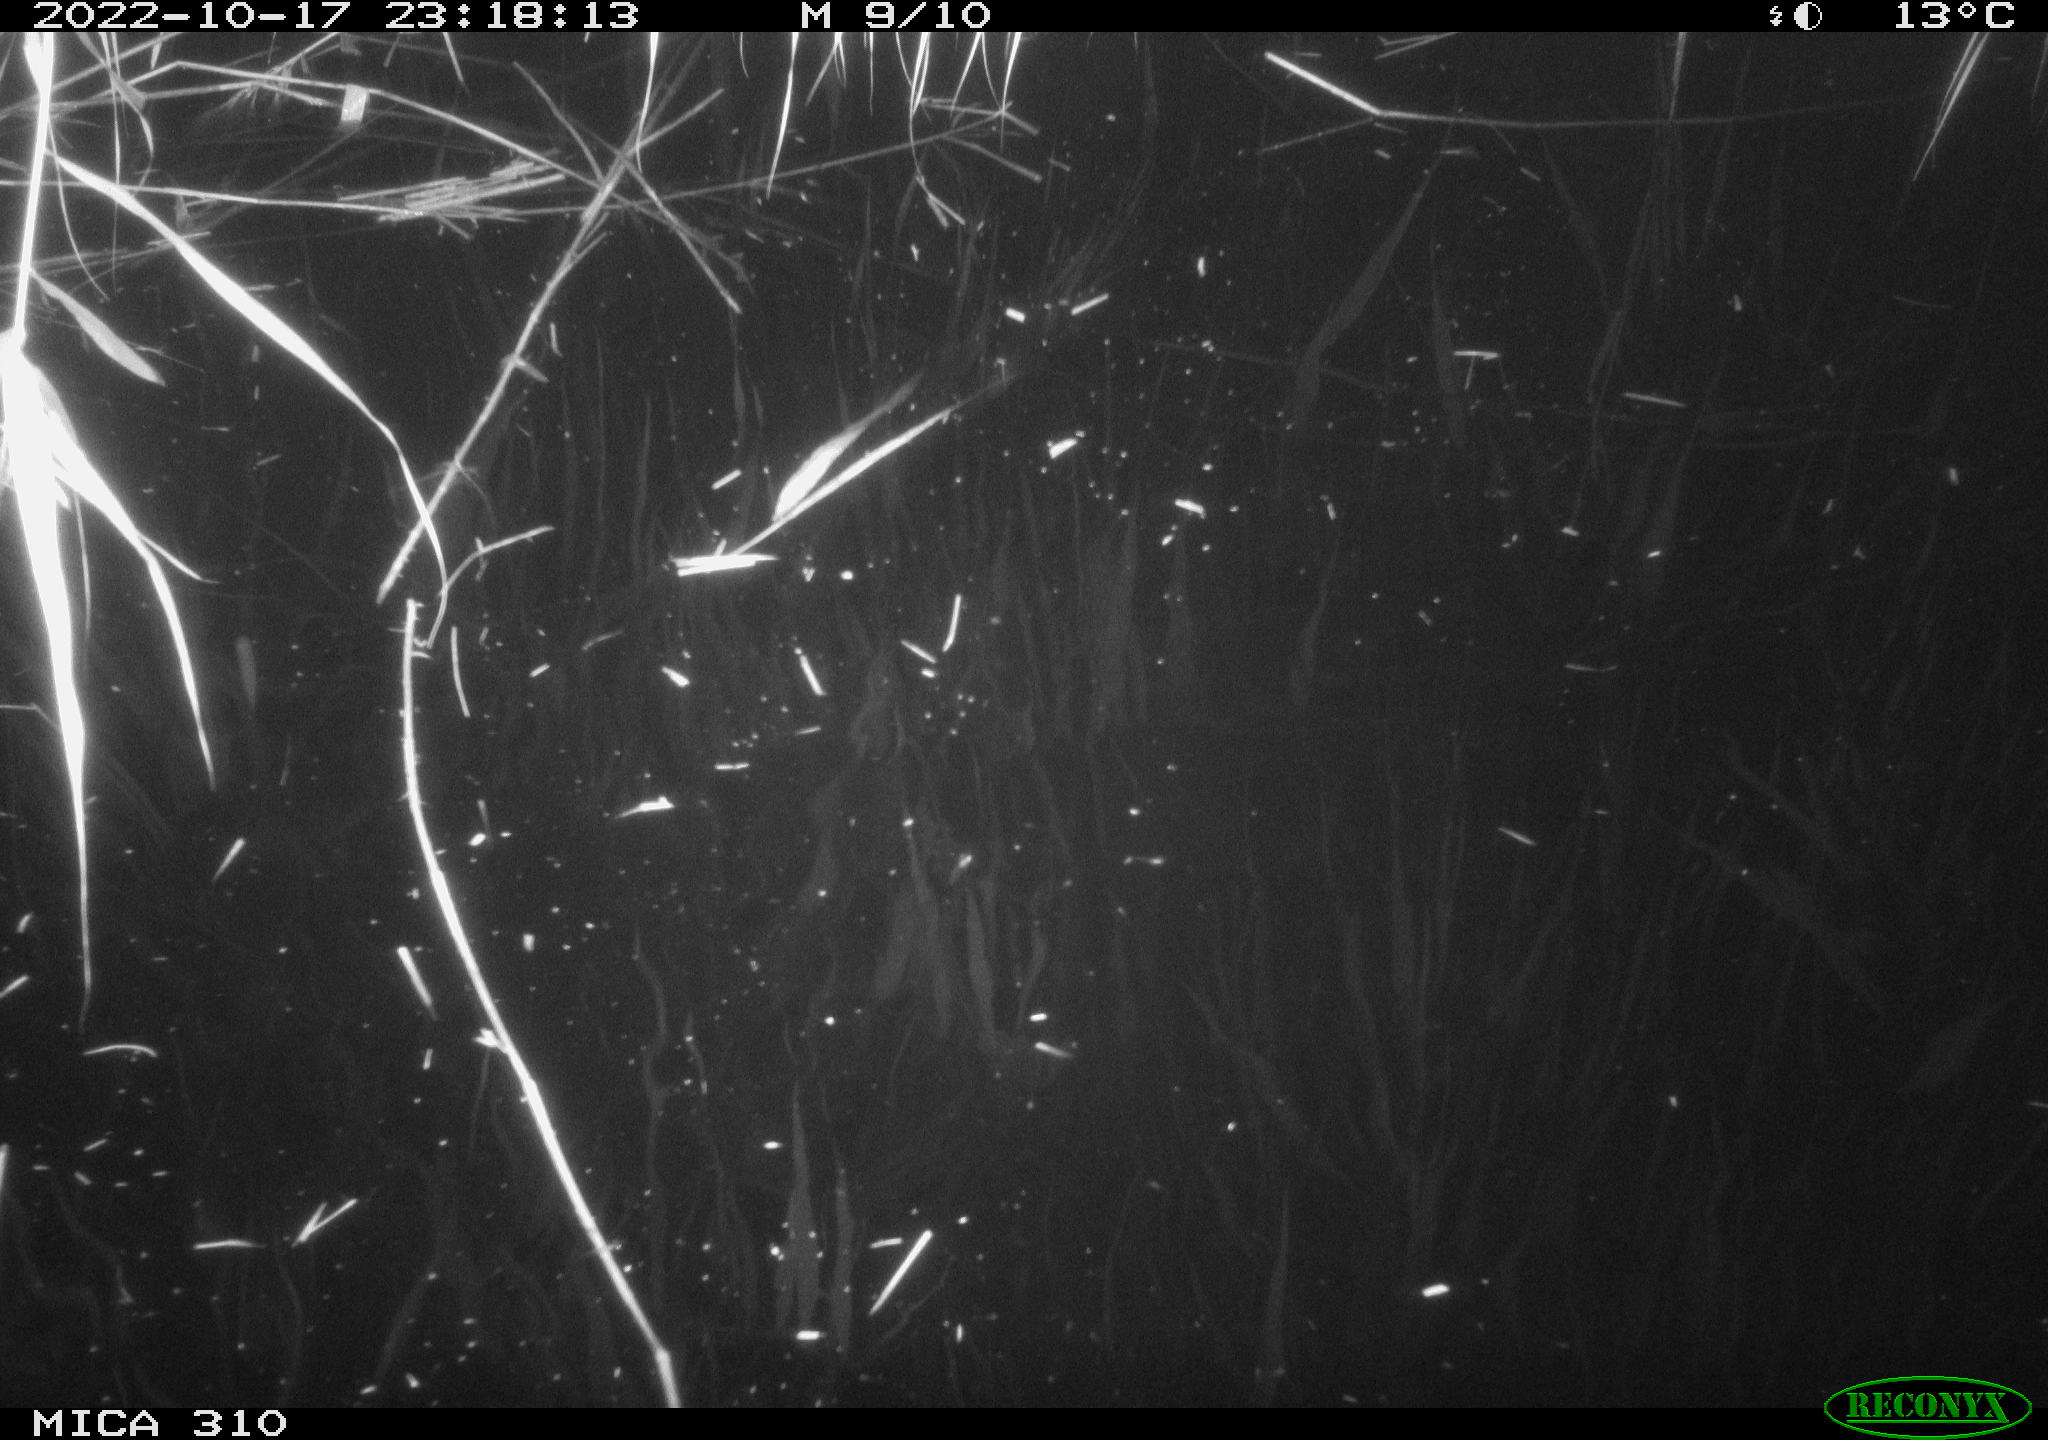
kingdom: Animalia
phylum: Chordata
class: Mammalia
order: Rodentia
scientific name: Rodentia
